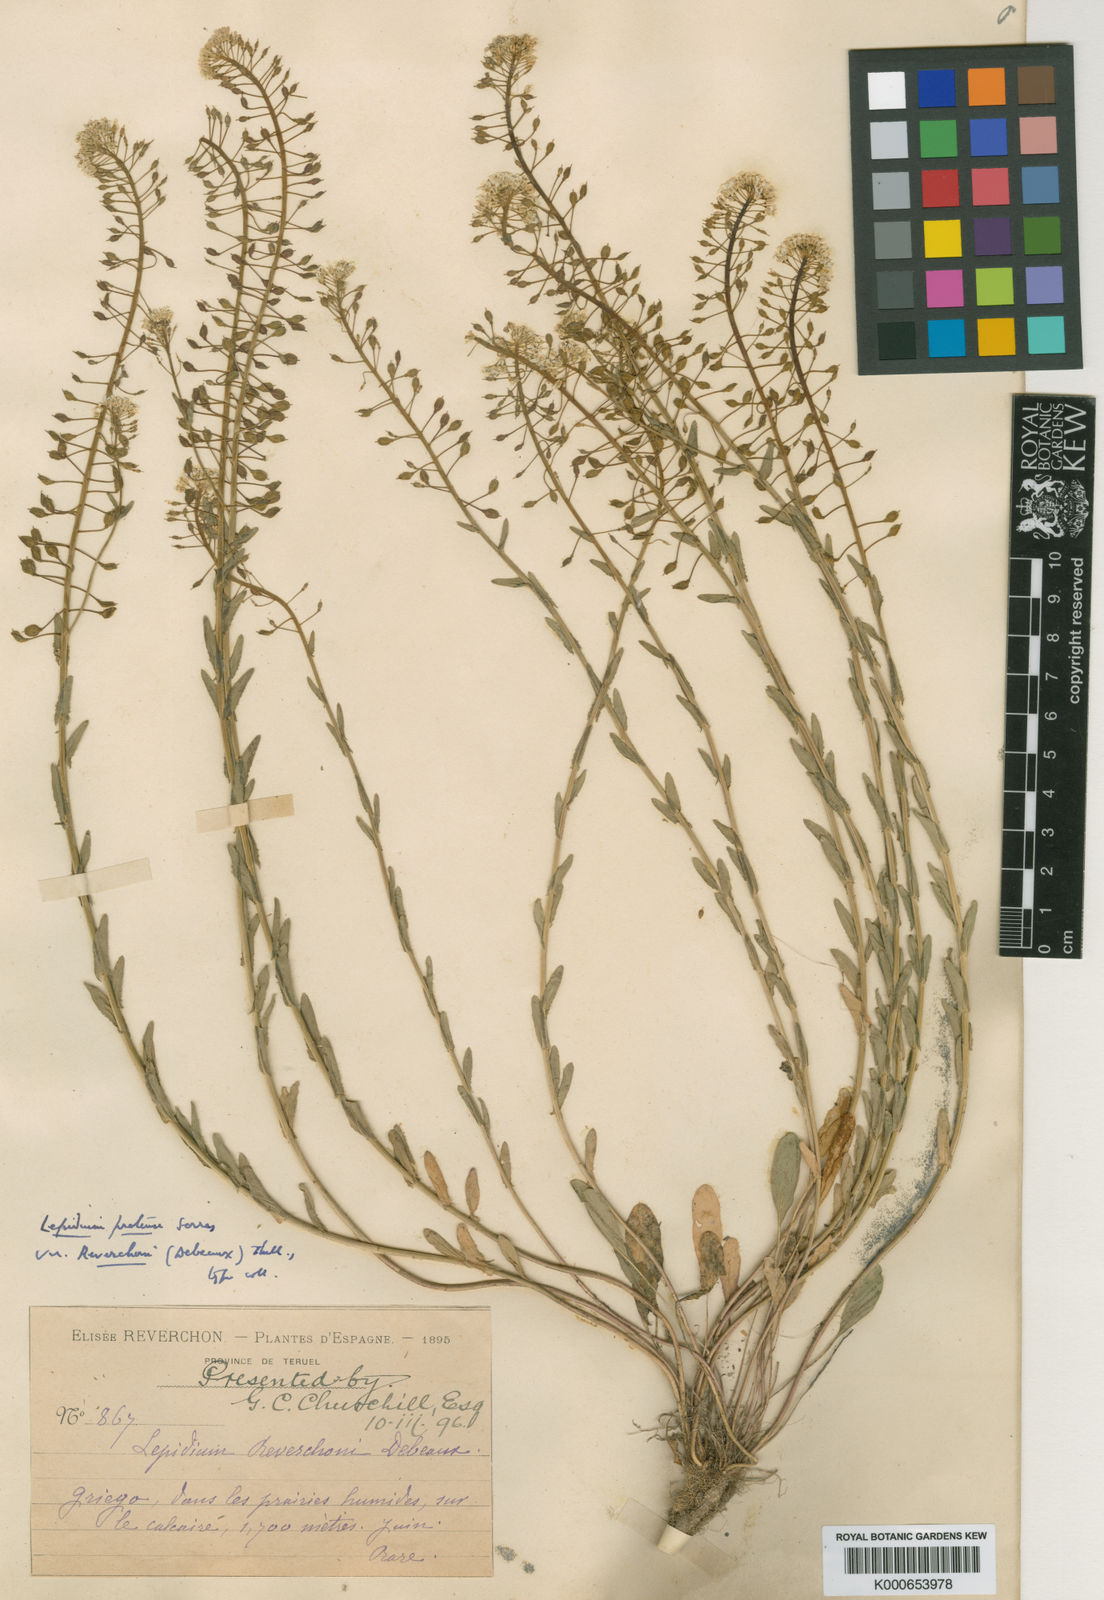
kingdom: Plantae
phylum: Tracheophyta
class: Magnoliopsida
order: Brassicales
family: Brassicaceae
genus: Lepidium
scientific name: Lepidium villarsii
